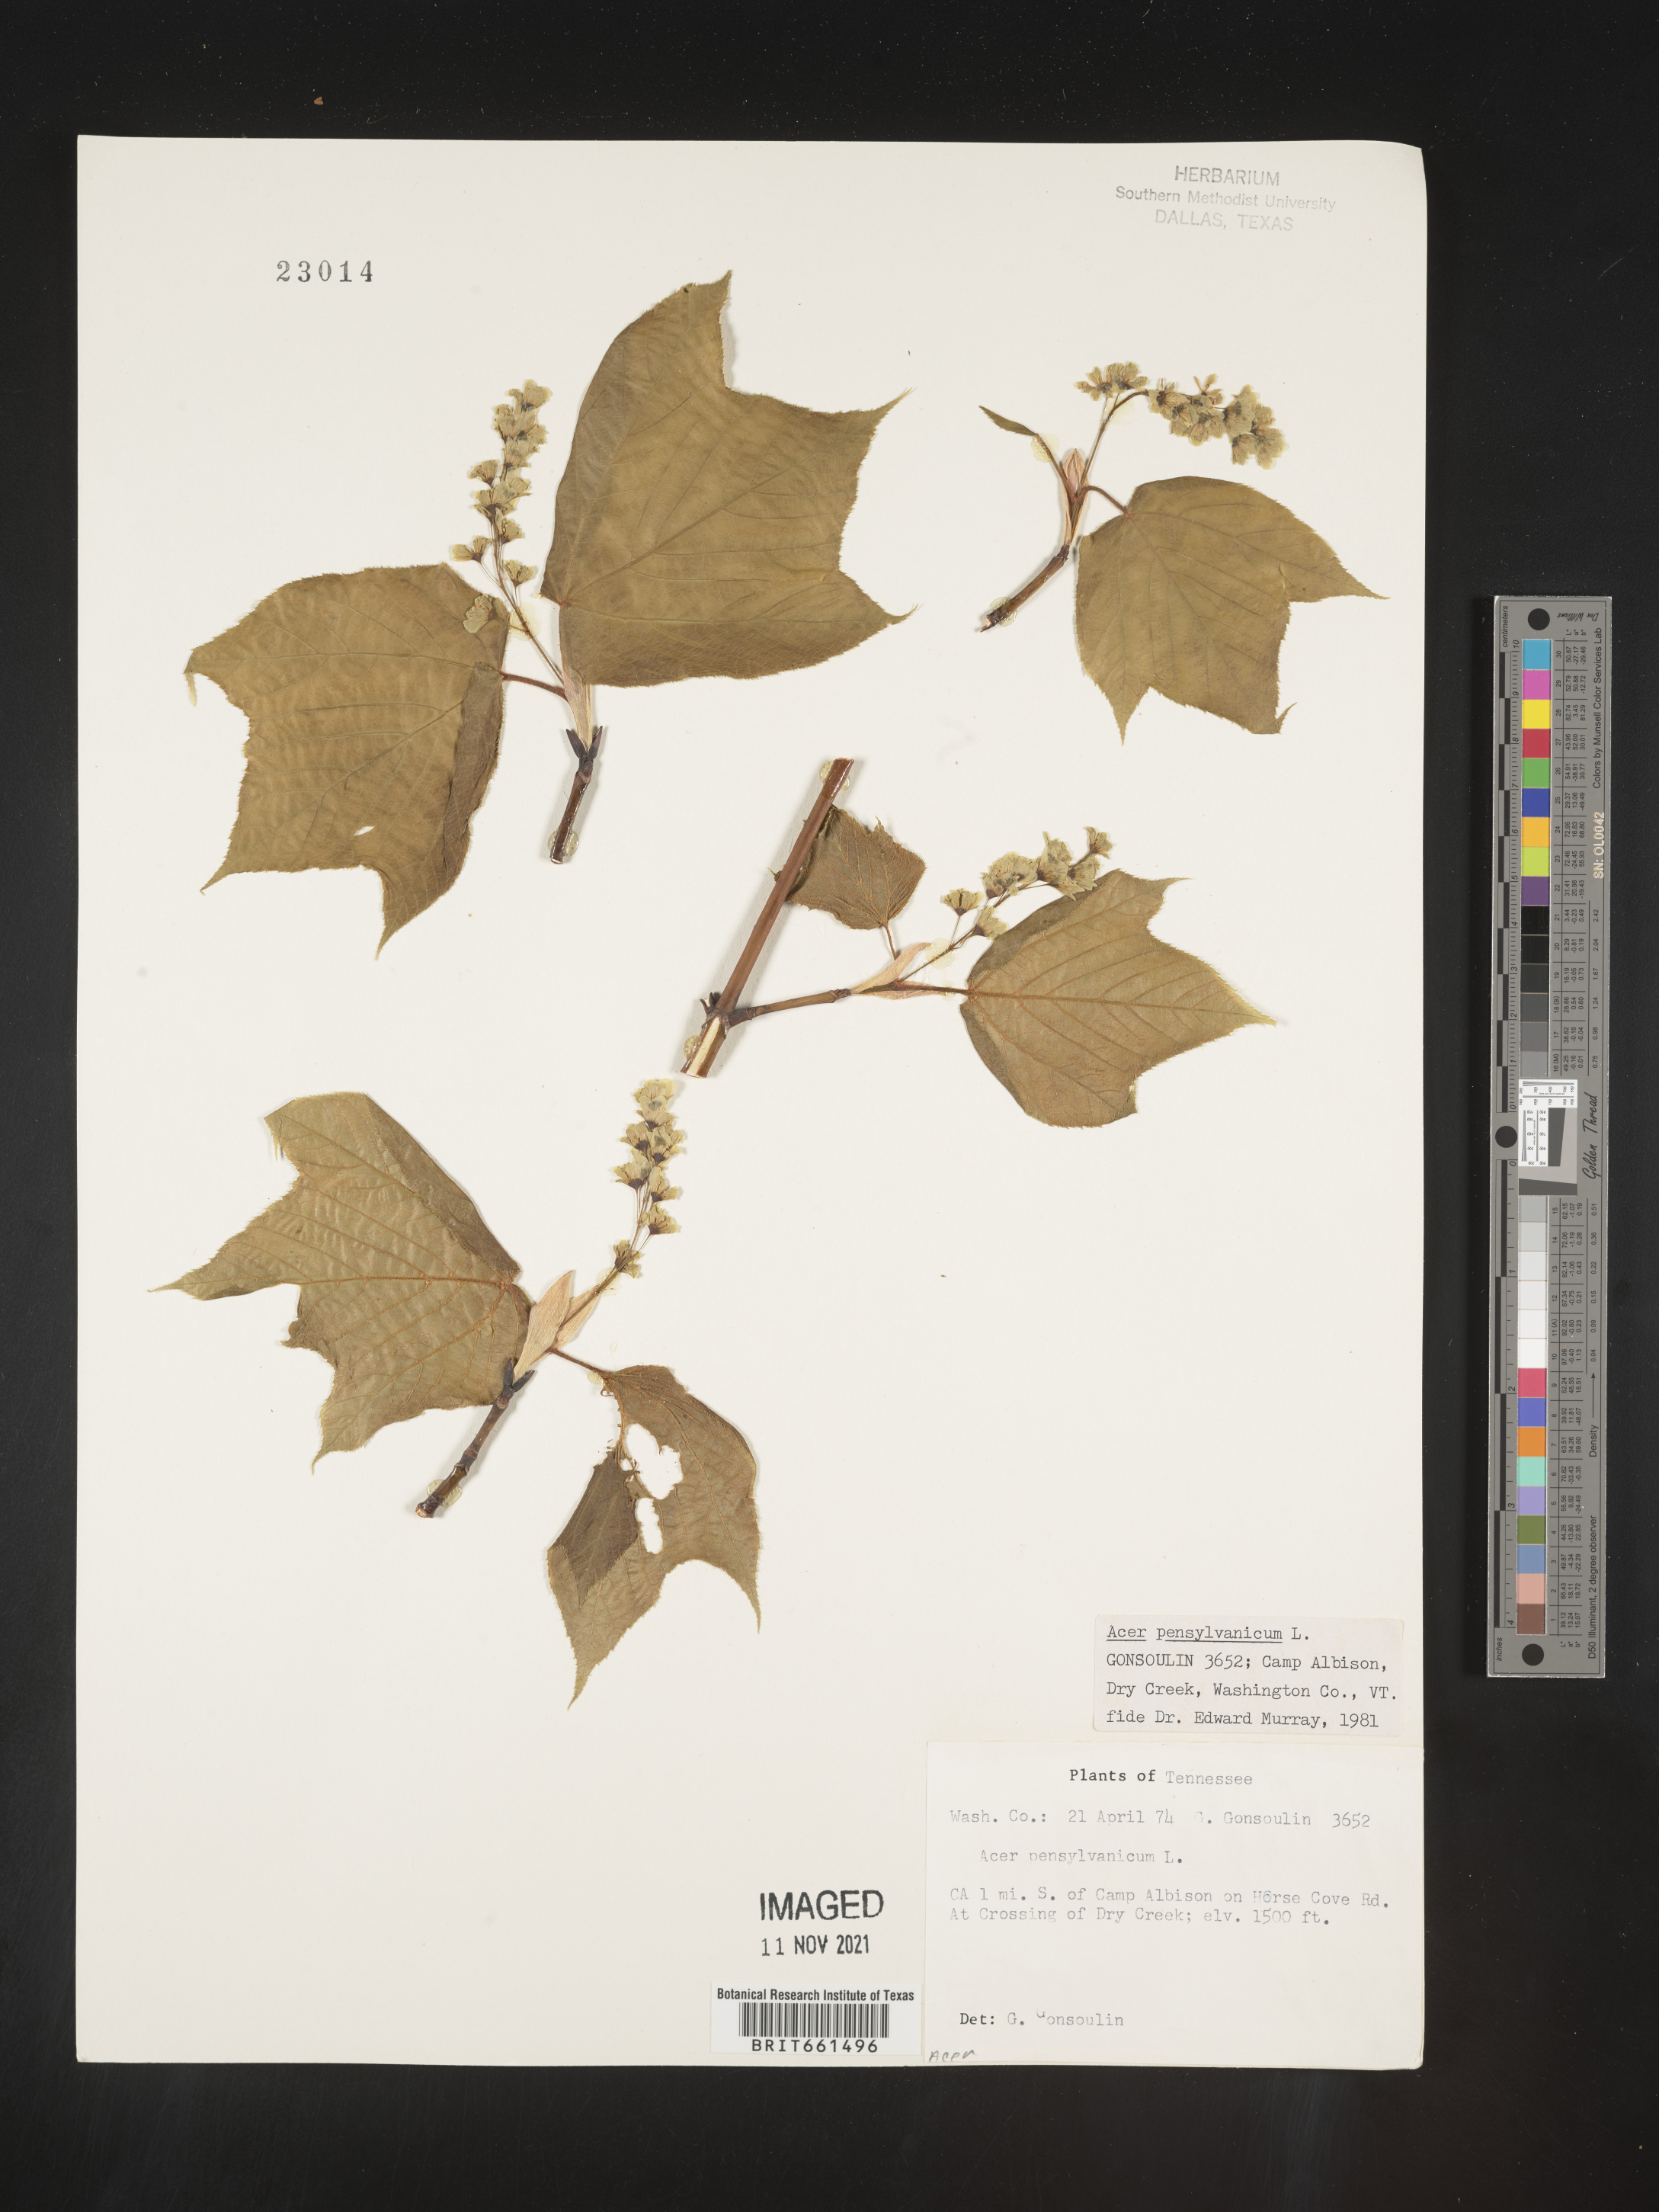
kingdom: Plantae
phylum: Tracheophyta
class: Magnoliopsida
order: Sapindales
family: Sapindaceae
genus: Acer
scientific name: Acer pensylvanicum
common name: Moosewood
